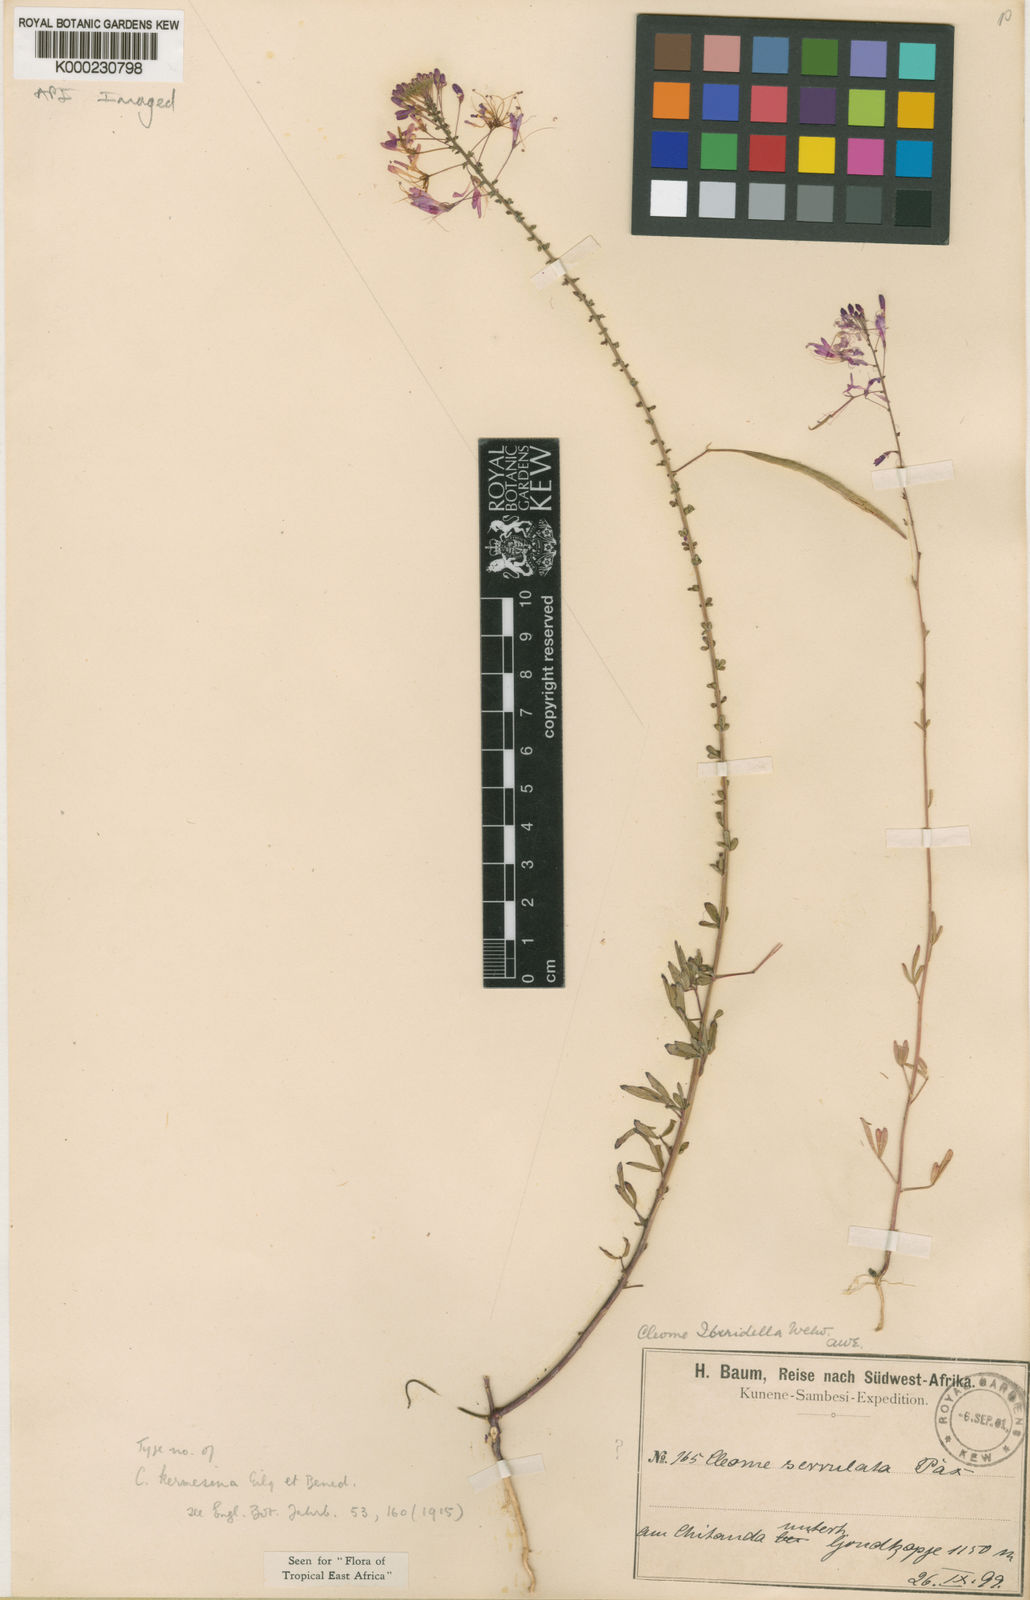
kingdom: Plantae
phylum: Tracheophyta
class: Magnoliopsida
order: Brassicales
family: Cleomaceae
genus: Sieruela
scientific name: Sieruela iberidella
